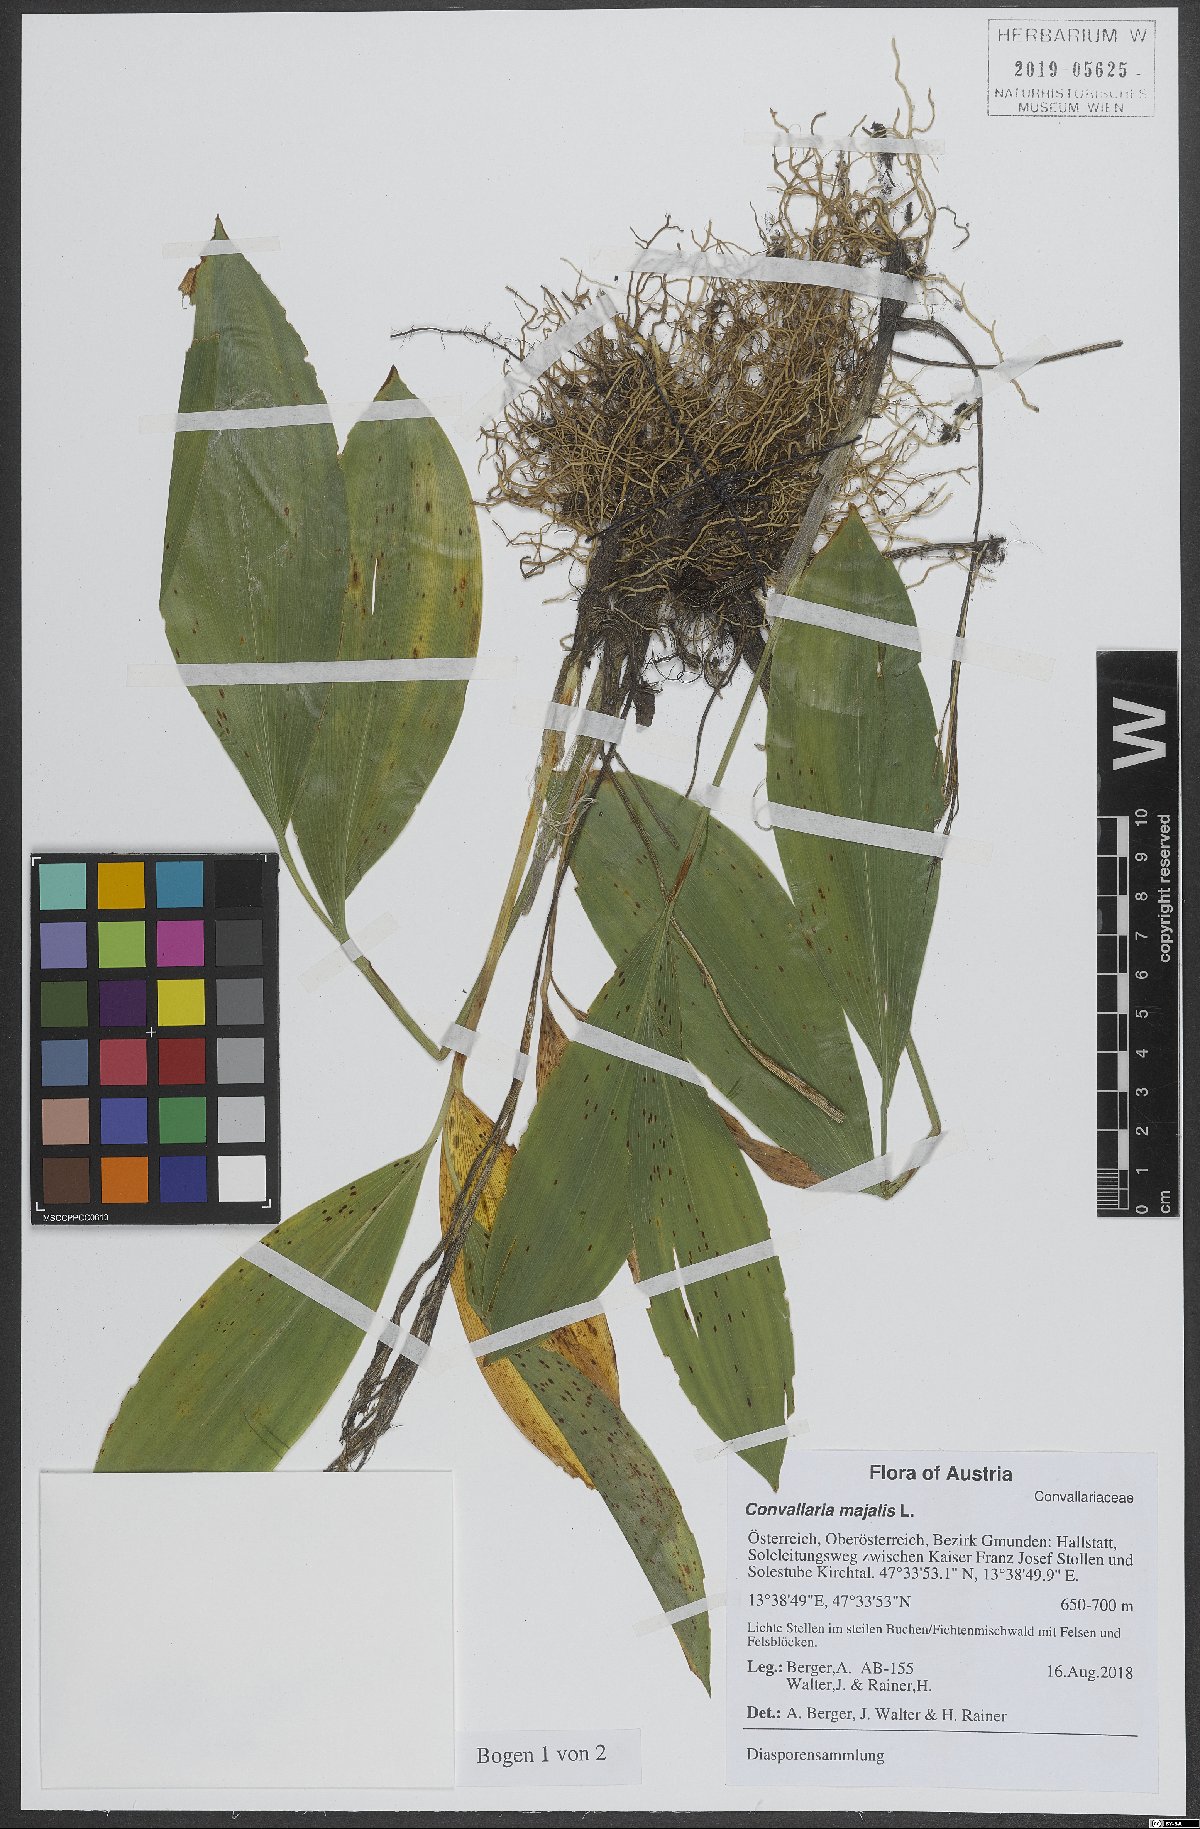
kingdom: Plantae
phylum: Tracheophyta
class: Liliopsida
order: Asparagales
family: Asparagaceae
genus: Convallaria
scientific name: Convallaria majalis
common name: Lily-of-the-valley
